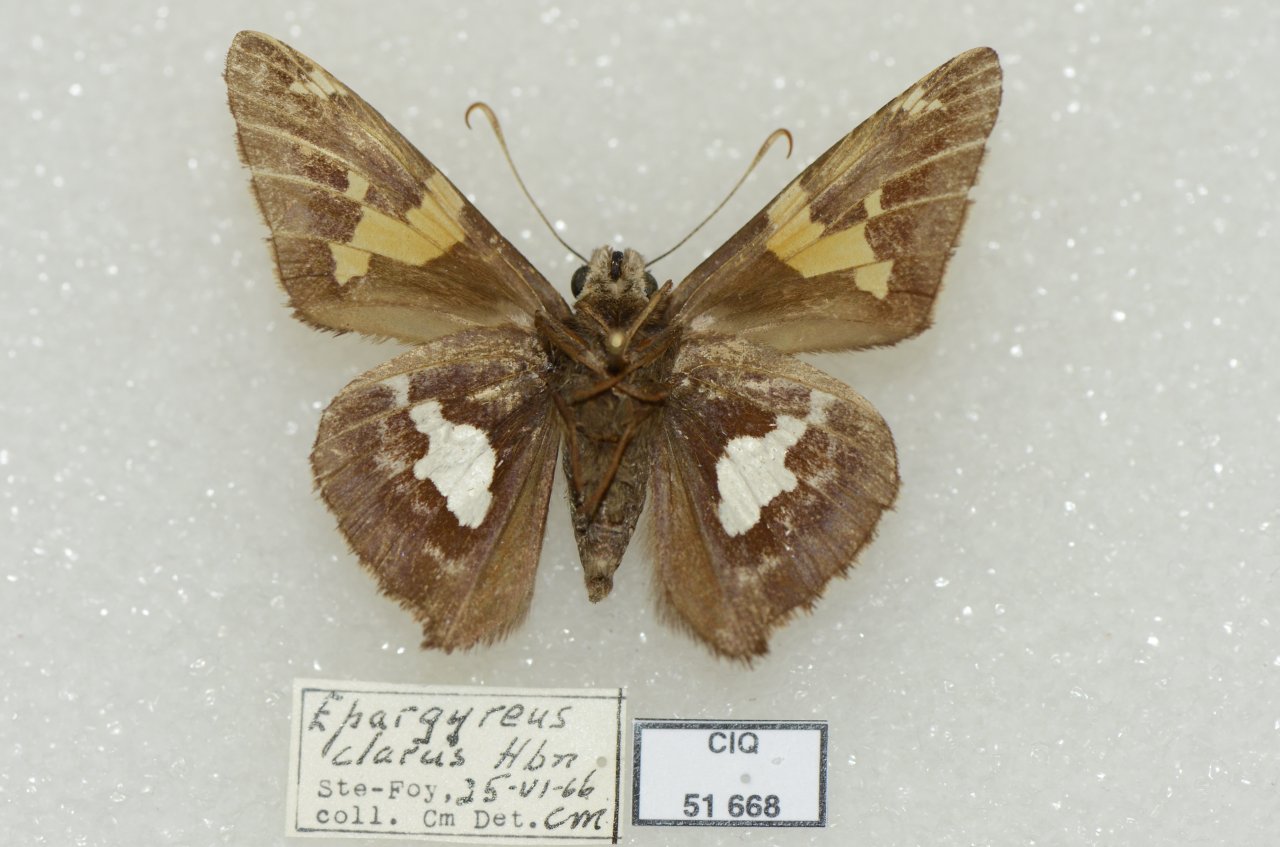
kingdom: Animalia
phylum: Arthropoda
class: Insecta
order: Lepidoptera
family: Hesperiidae
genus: Epargyreus
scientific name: Epargyreus clarus
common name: Silver-spotted Skipper
